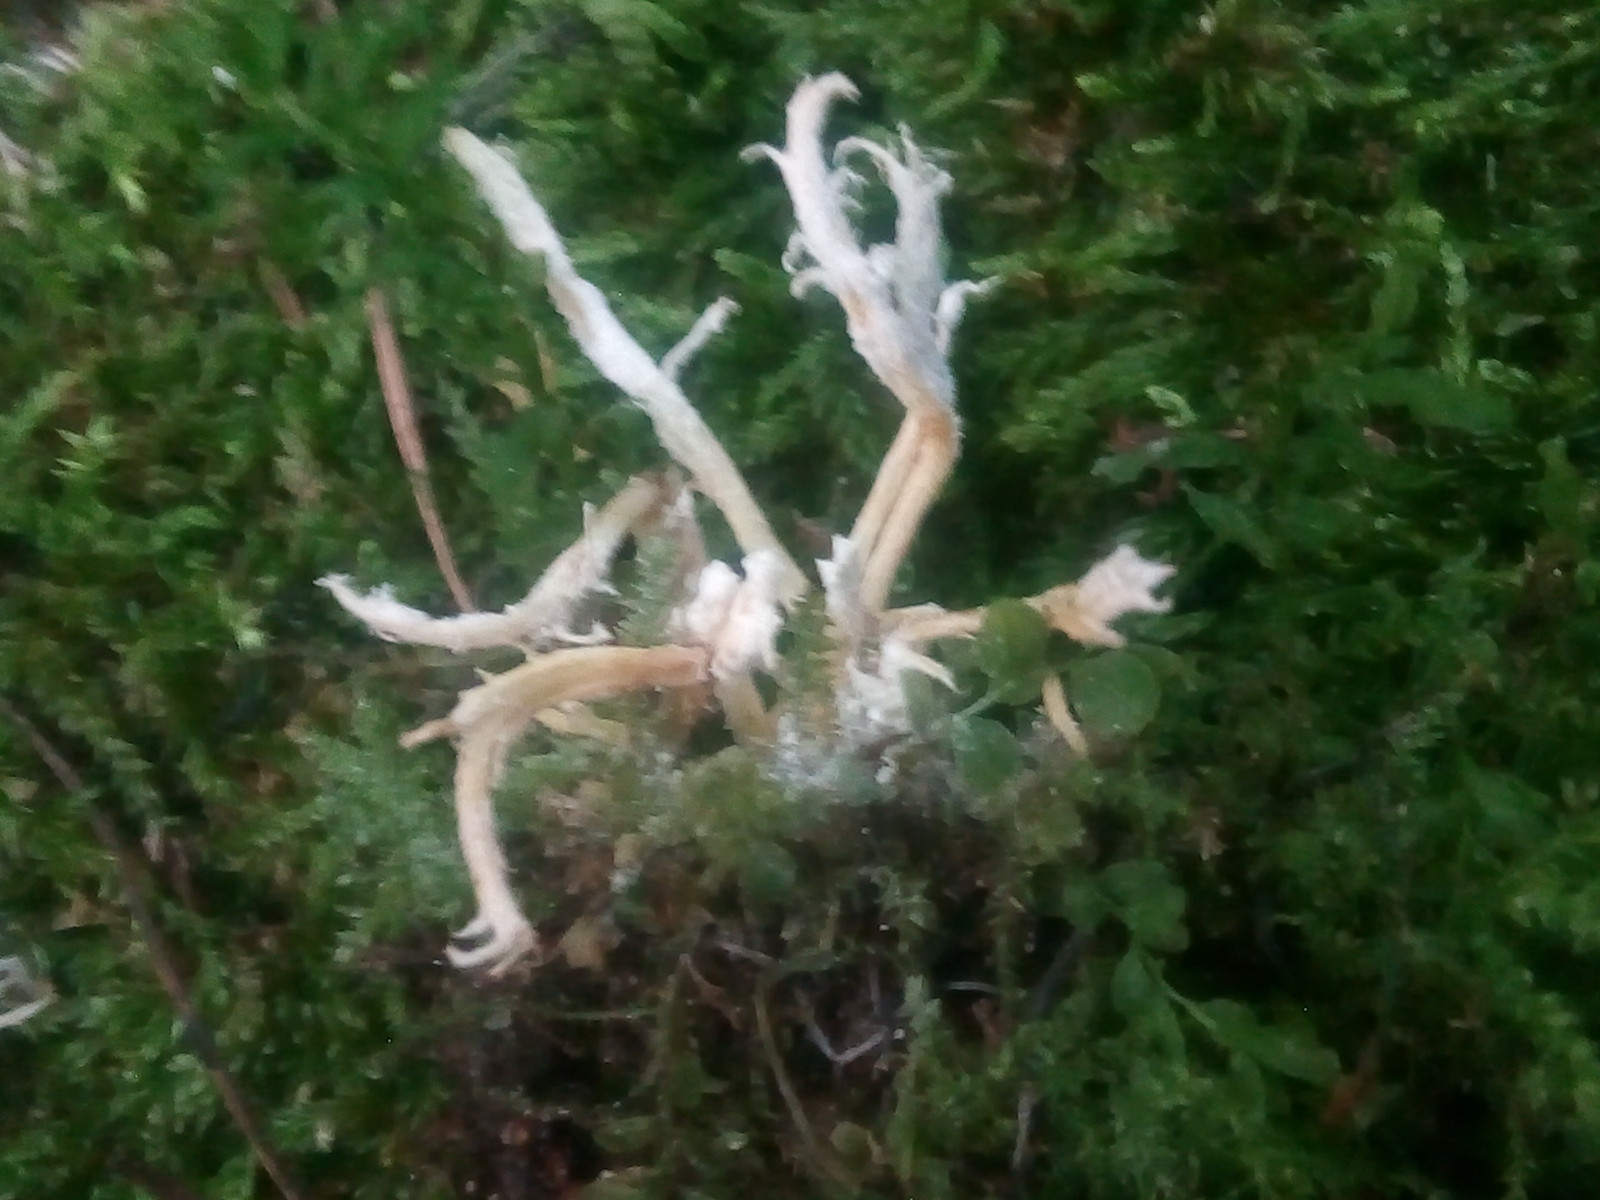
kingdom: Fungi
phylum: Ascomycota
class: Sordariomycetes
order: Hypocreales
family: Cordycipitaceae
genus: Cordyceps
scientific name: Cordyceps tenuipes
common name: støvende snyltekølle
